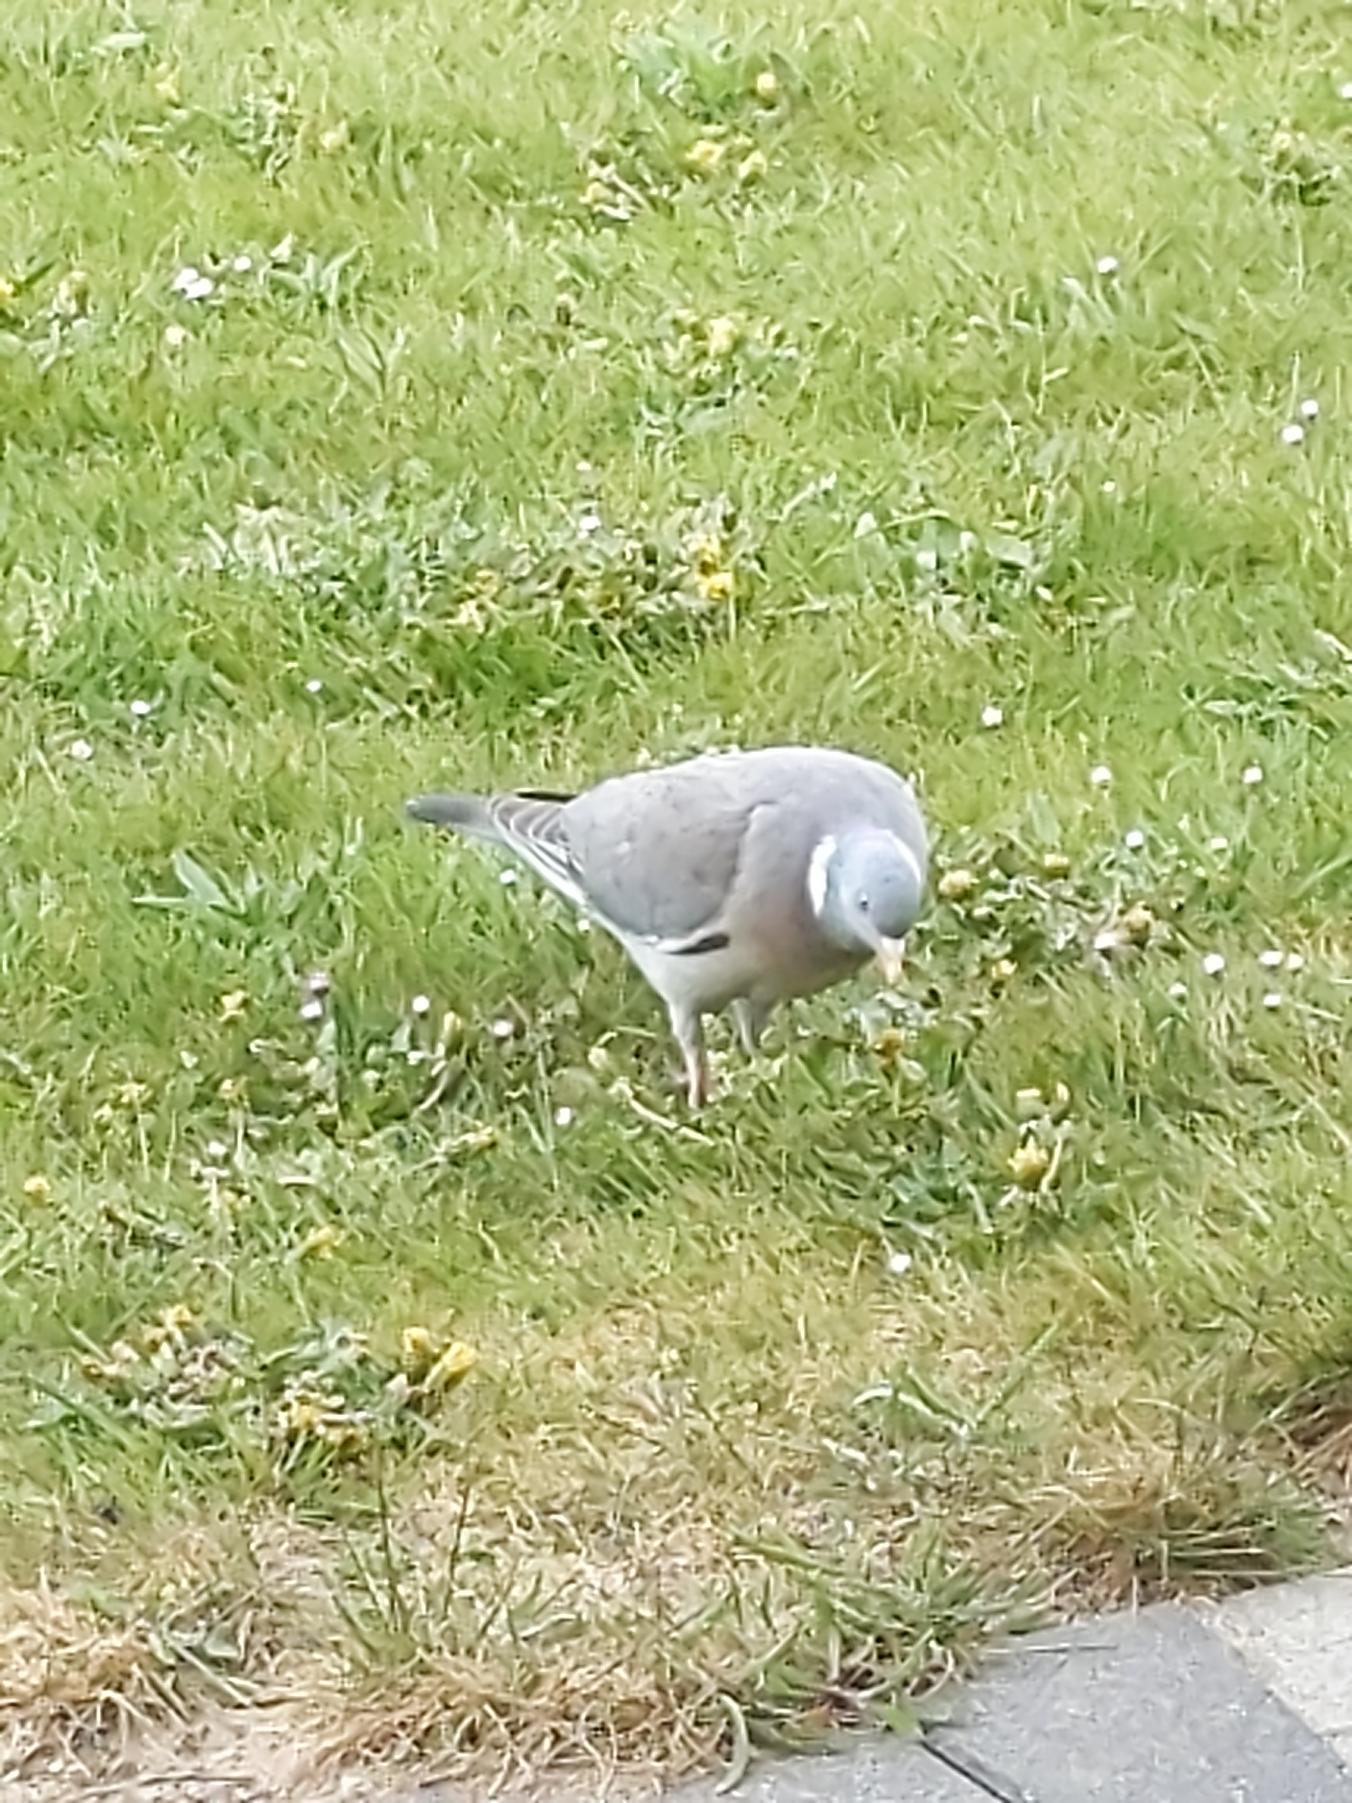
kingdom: Animalia
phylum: Chordata
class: Aves
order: Columbiformes
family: Columbidae
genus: Columba
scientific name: Columba palumbus
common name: Ringdue
